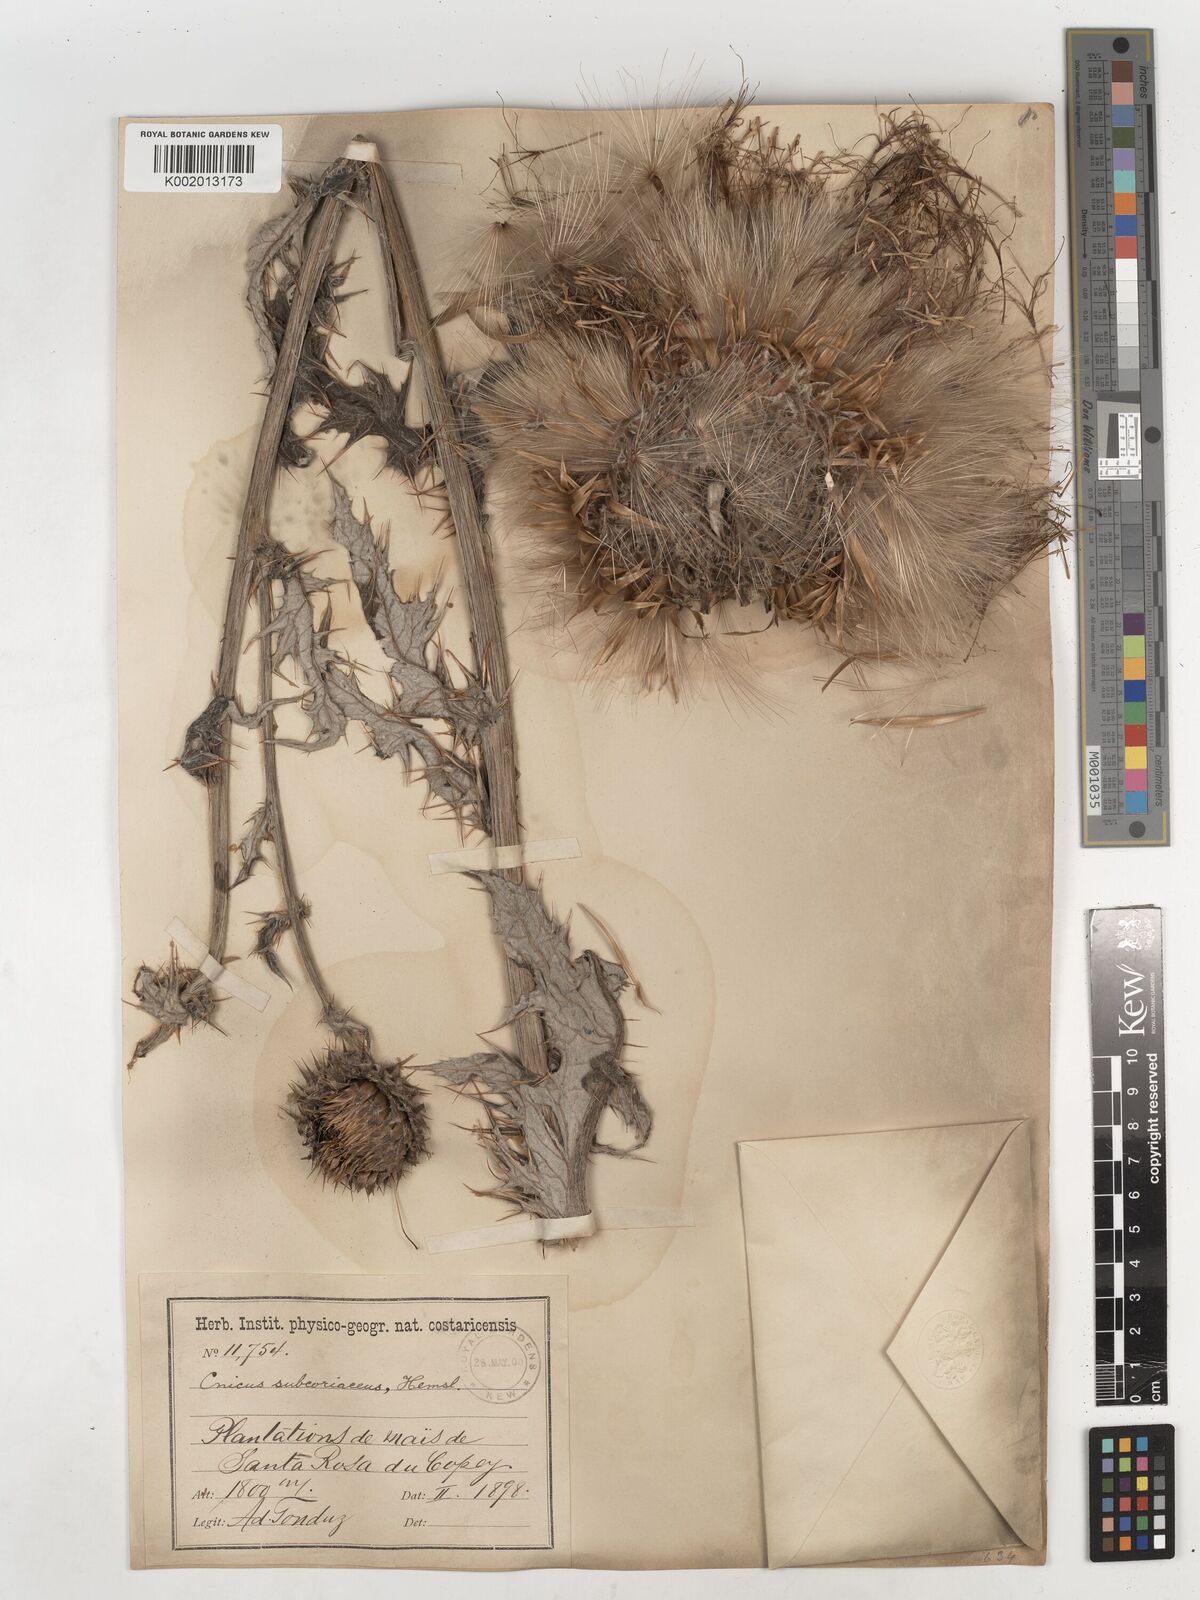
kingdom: Plantae
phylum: Tracheophyta
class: Magnoliopsida
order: Asterales
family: Asteraceae
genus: Cirsium
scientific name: Cirsium subcoriaceum
